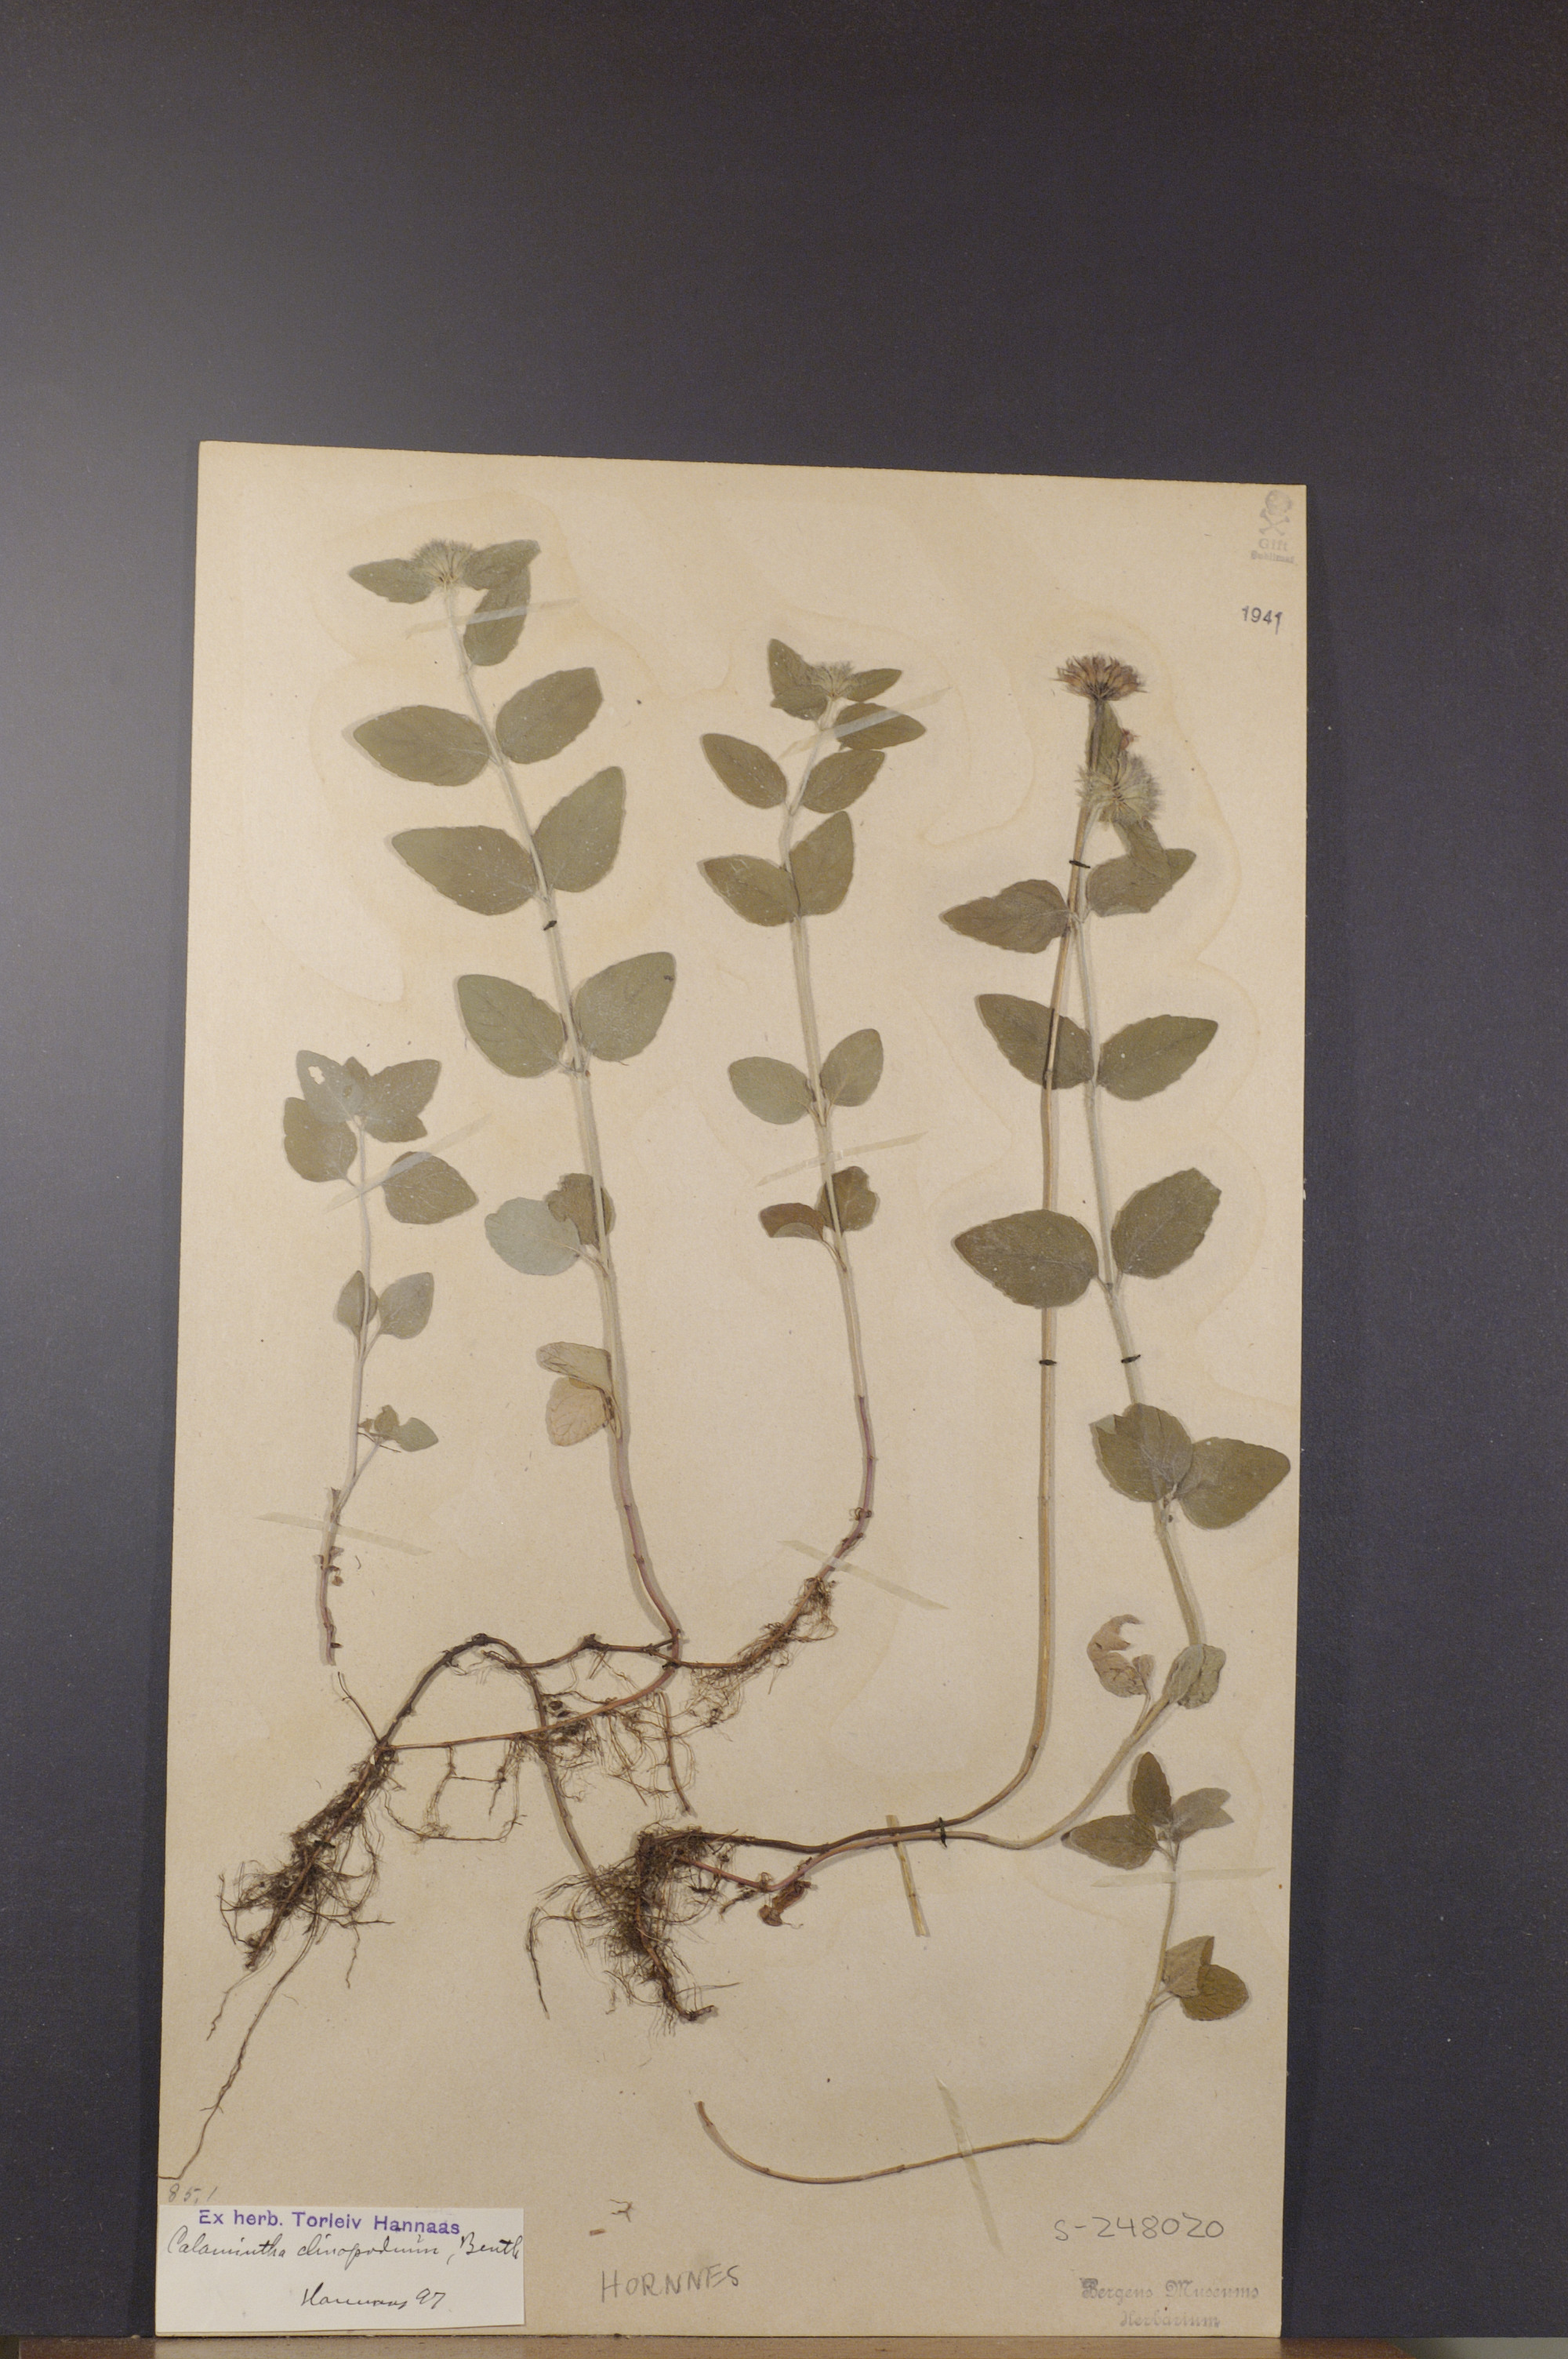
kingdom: Plantae
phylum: Tracheophyta
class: Magnoliopsida
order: Lamiales
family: Lamiaceae
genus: Clinopodium
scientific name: Clinopodium vulgare
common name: Wild basil
